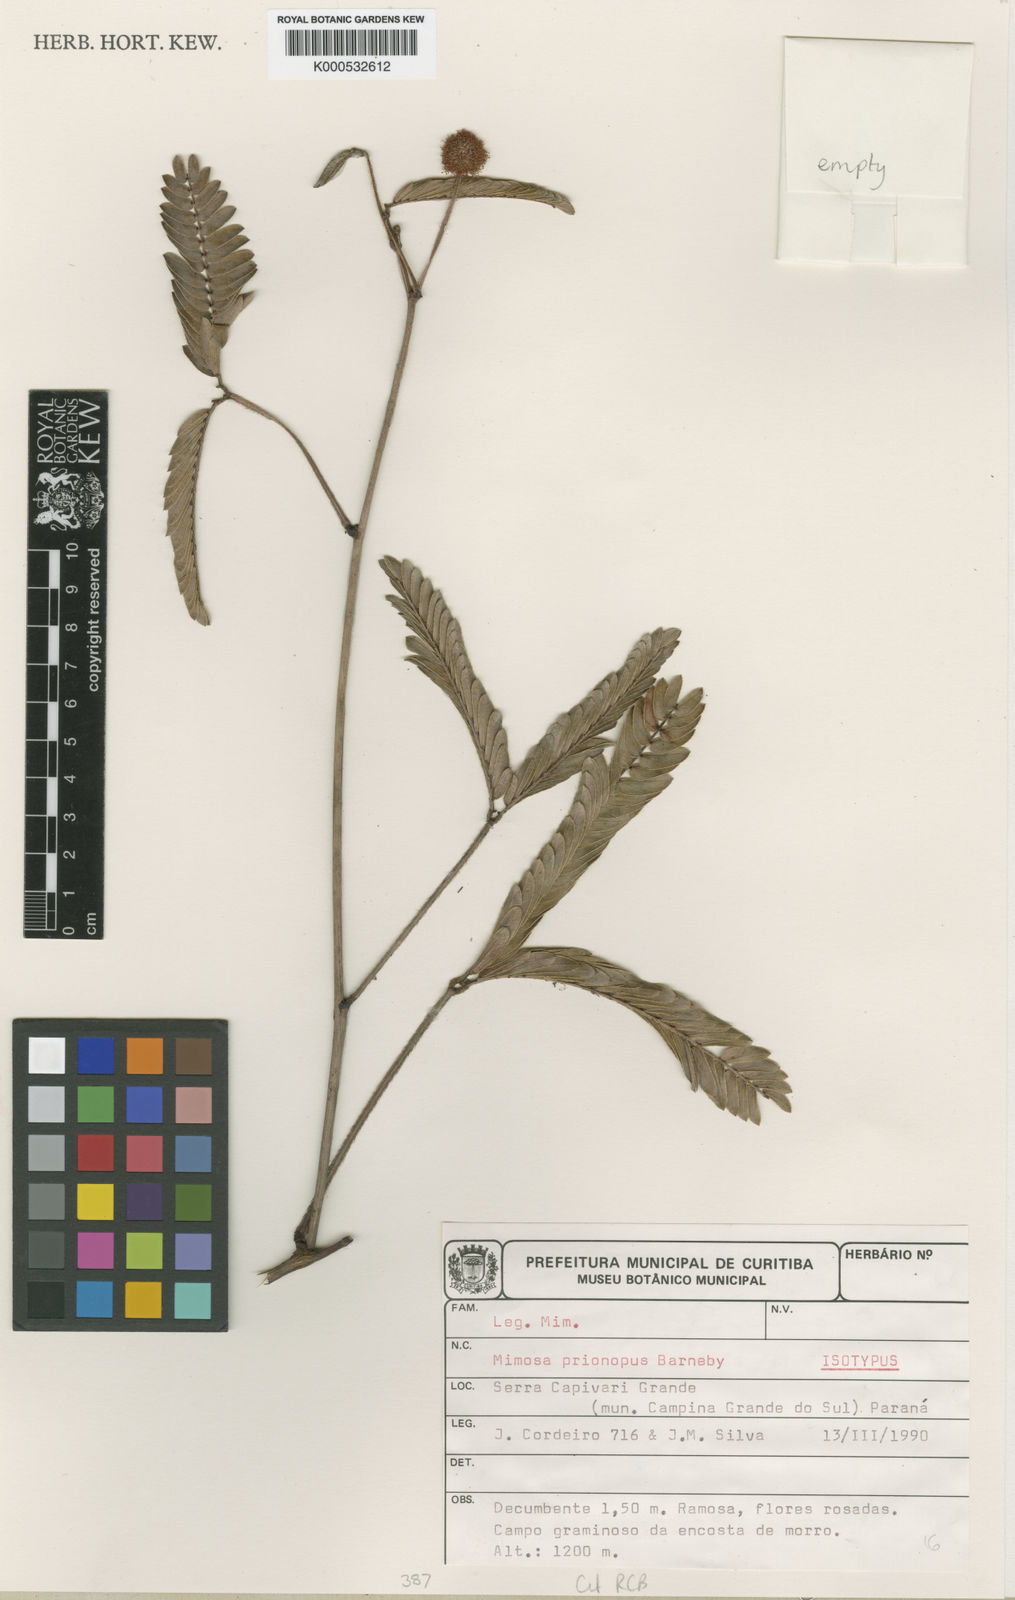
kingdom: Plantae
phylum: Tracheophyta
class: Magnoliopsida
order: Fabales
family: Fabaceae
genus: Mimosa
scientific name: Mimosa prionopus
